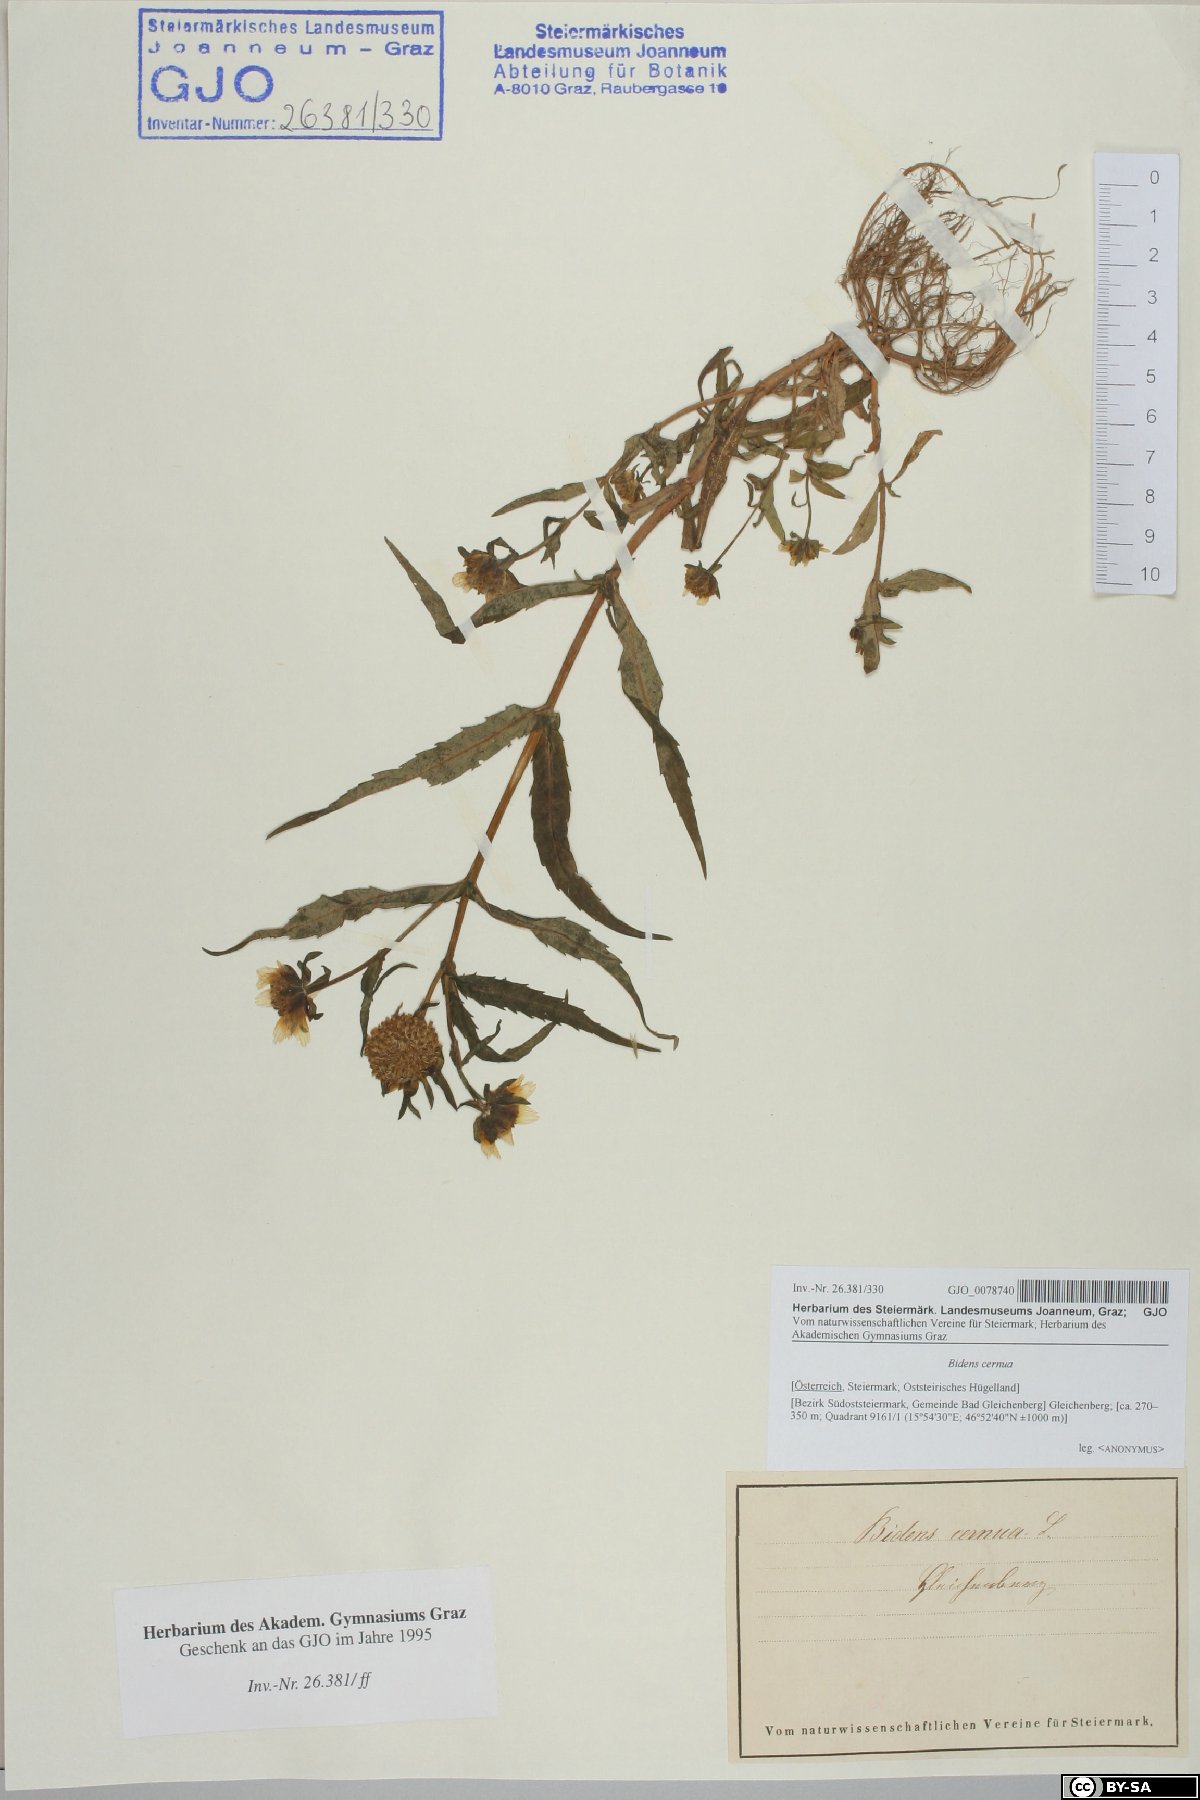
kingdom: Plantae
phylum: Tracheophyta
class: Magnoliopsida
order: Asterales
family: Asteraceae
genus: Bidens
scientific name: Bidens cernua
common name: Nodding bur-marigold
